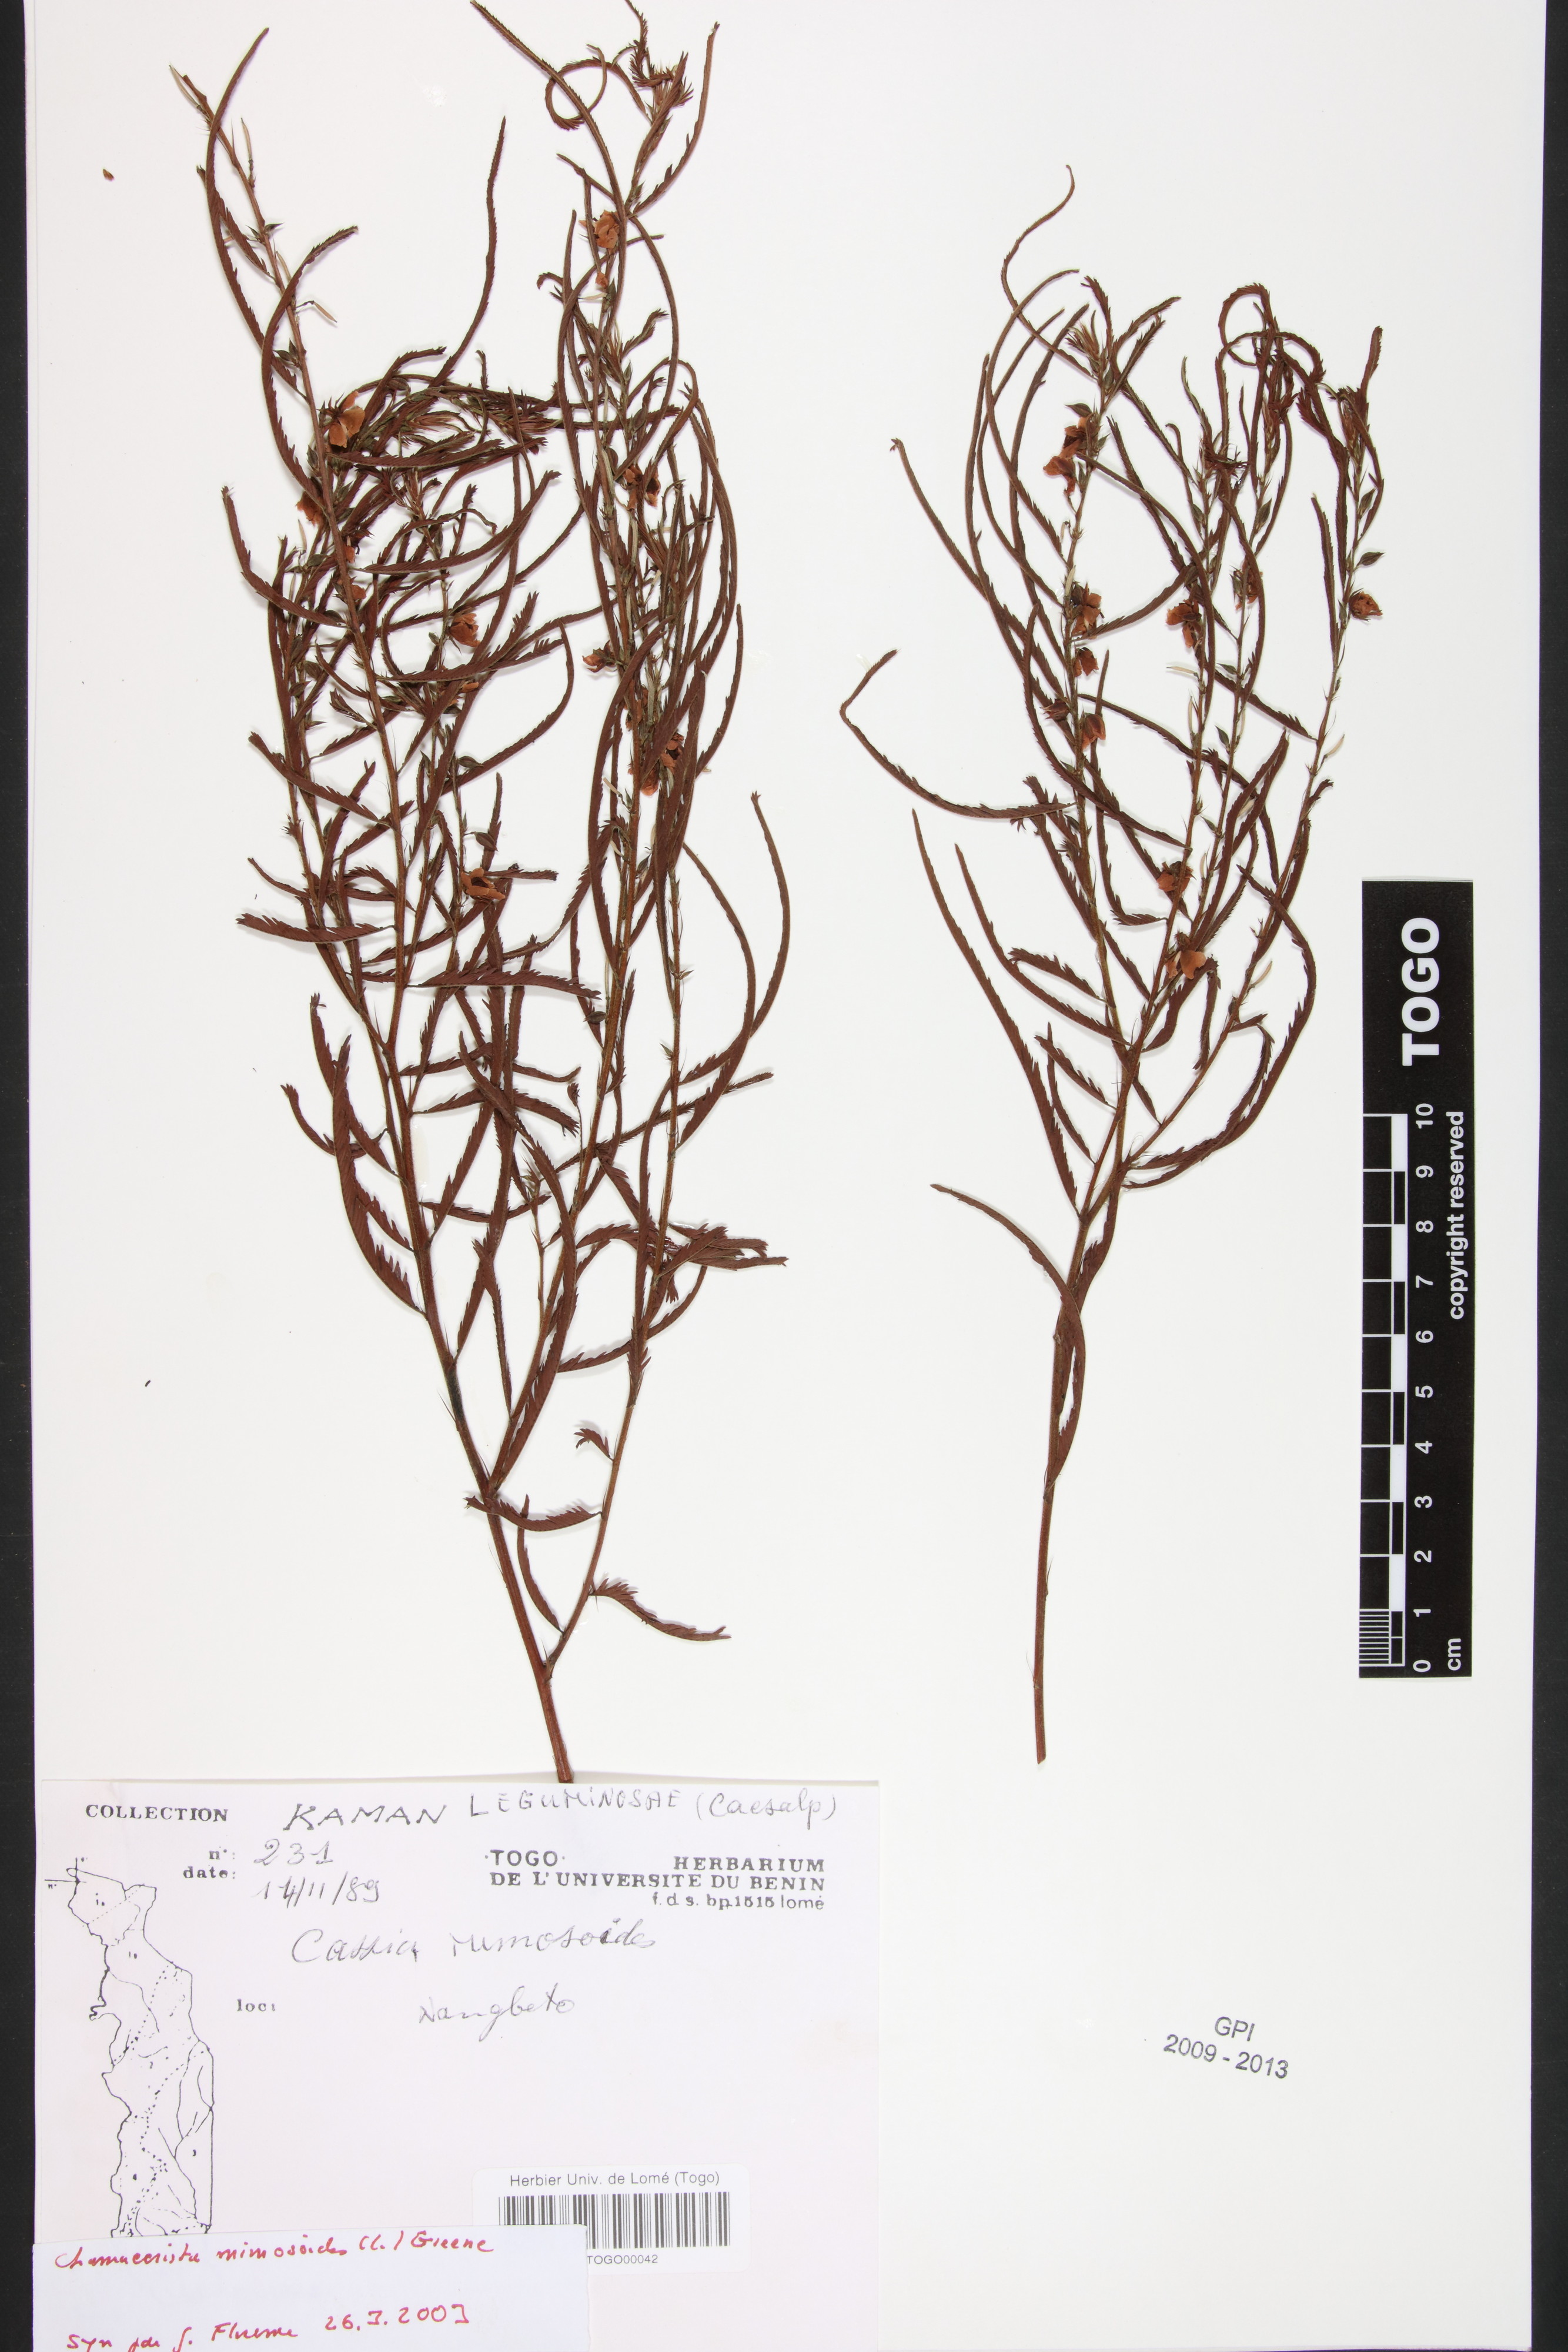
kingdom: Plantae
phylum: Tracheophyta
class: Magnoliopsida
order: Fabales
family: Fabaceae
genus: Chamaecrista
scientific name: Chamaecrista mimosoides
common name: Fish-bone cassia
